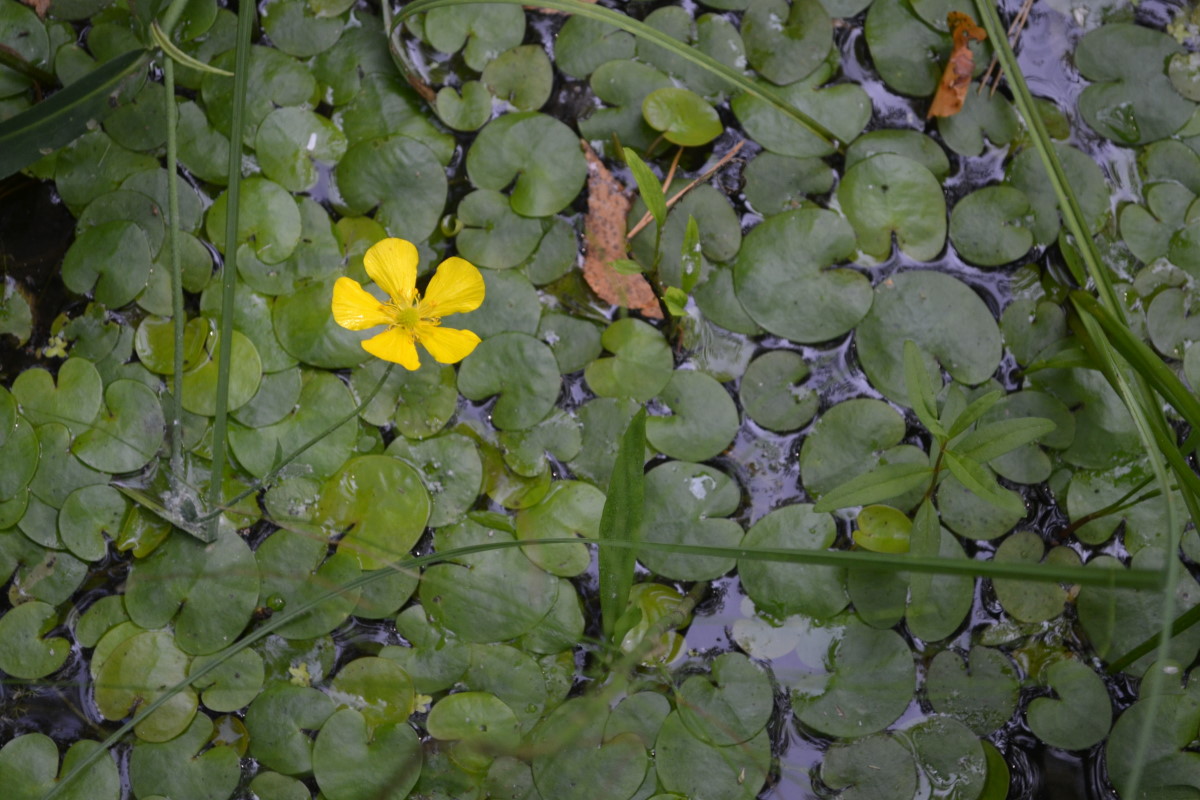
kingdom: Plantae
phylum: Tracheophyta
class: Magnoliopsida
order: Ranunculales
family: Ranunculaceae
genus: Ranunculus
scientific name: Ranunculus lingua
